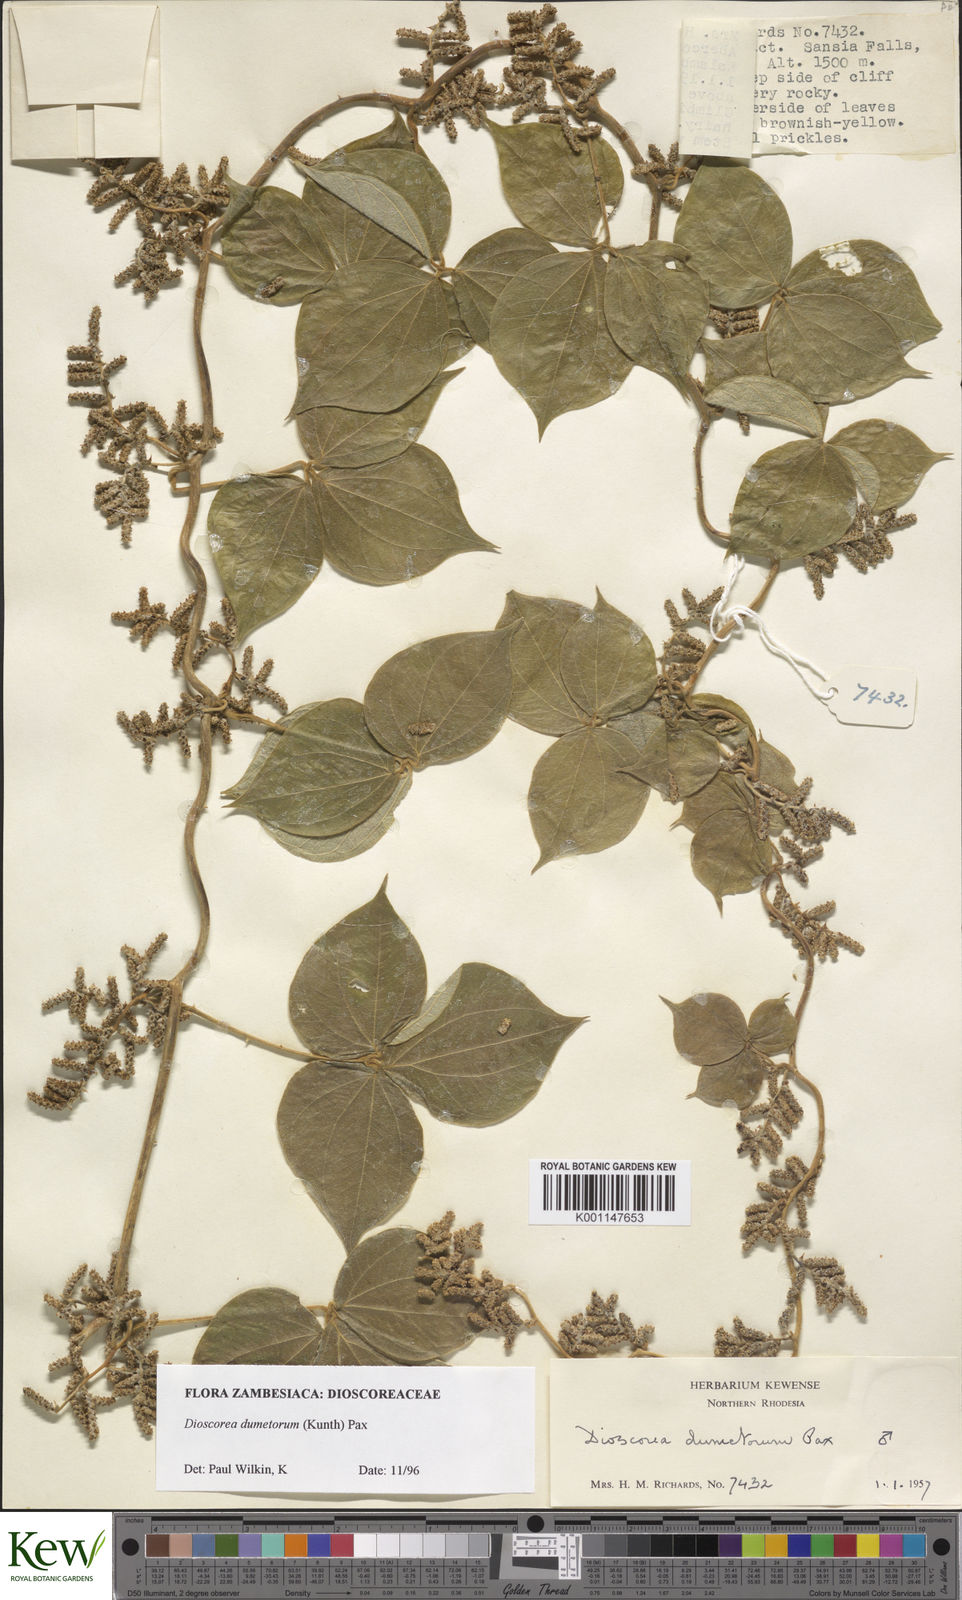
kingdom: Plantae
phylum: Tracheophyta
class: Liliopsida
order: Dioscoreales
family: Dioscoreaceae
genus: Dioscorea
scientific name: Dioscorea dumetorum
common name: African bitter yam
